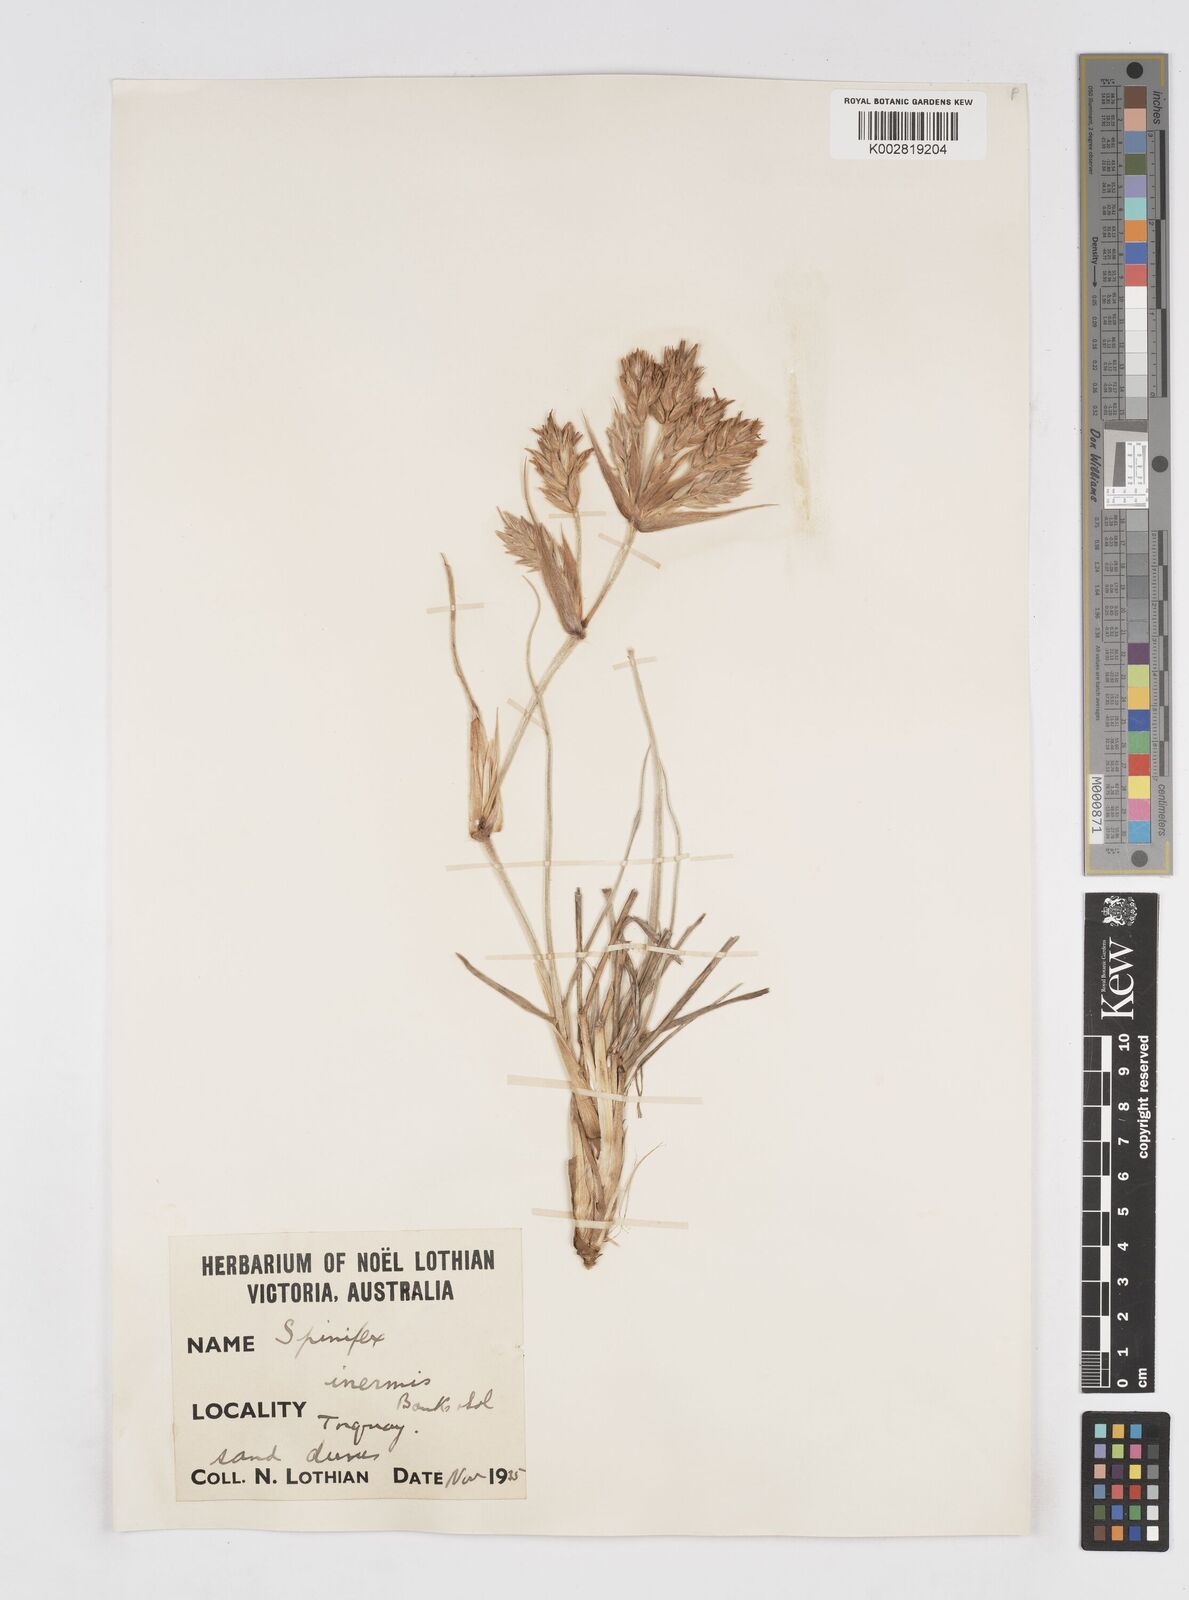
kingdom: Plantae
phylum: Tracheophyta
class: Liliopsida
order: Poales
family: Poaceae
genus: Spinifex
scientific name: Spinifex sericeus
